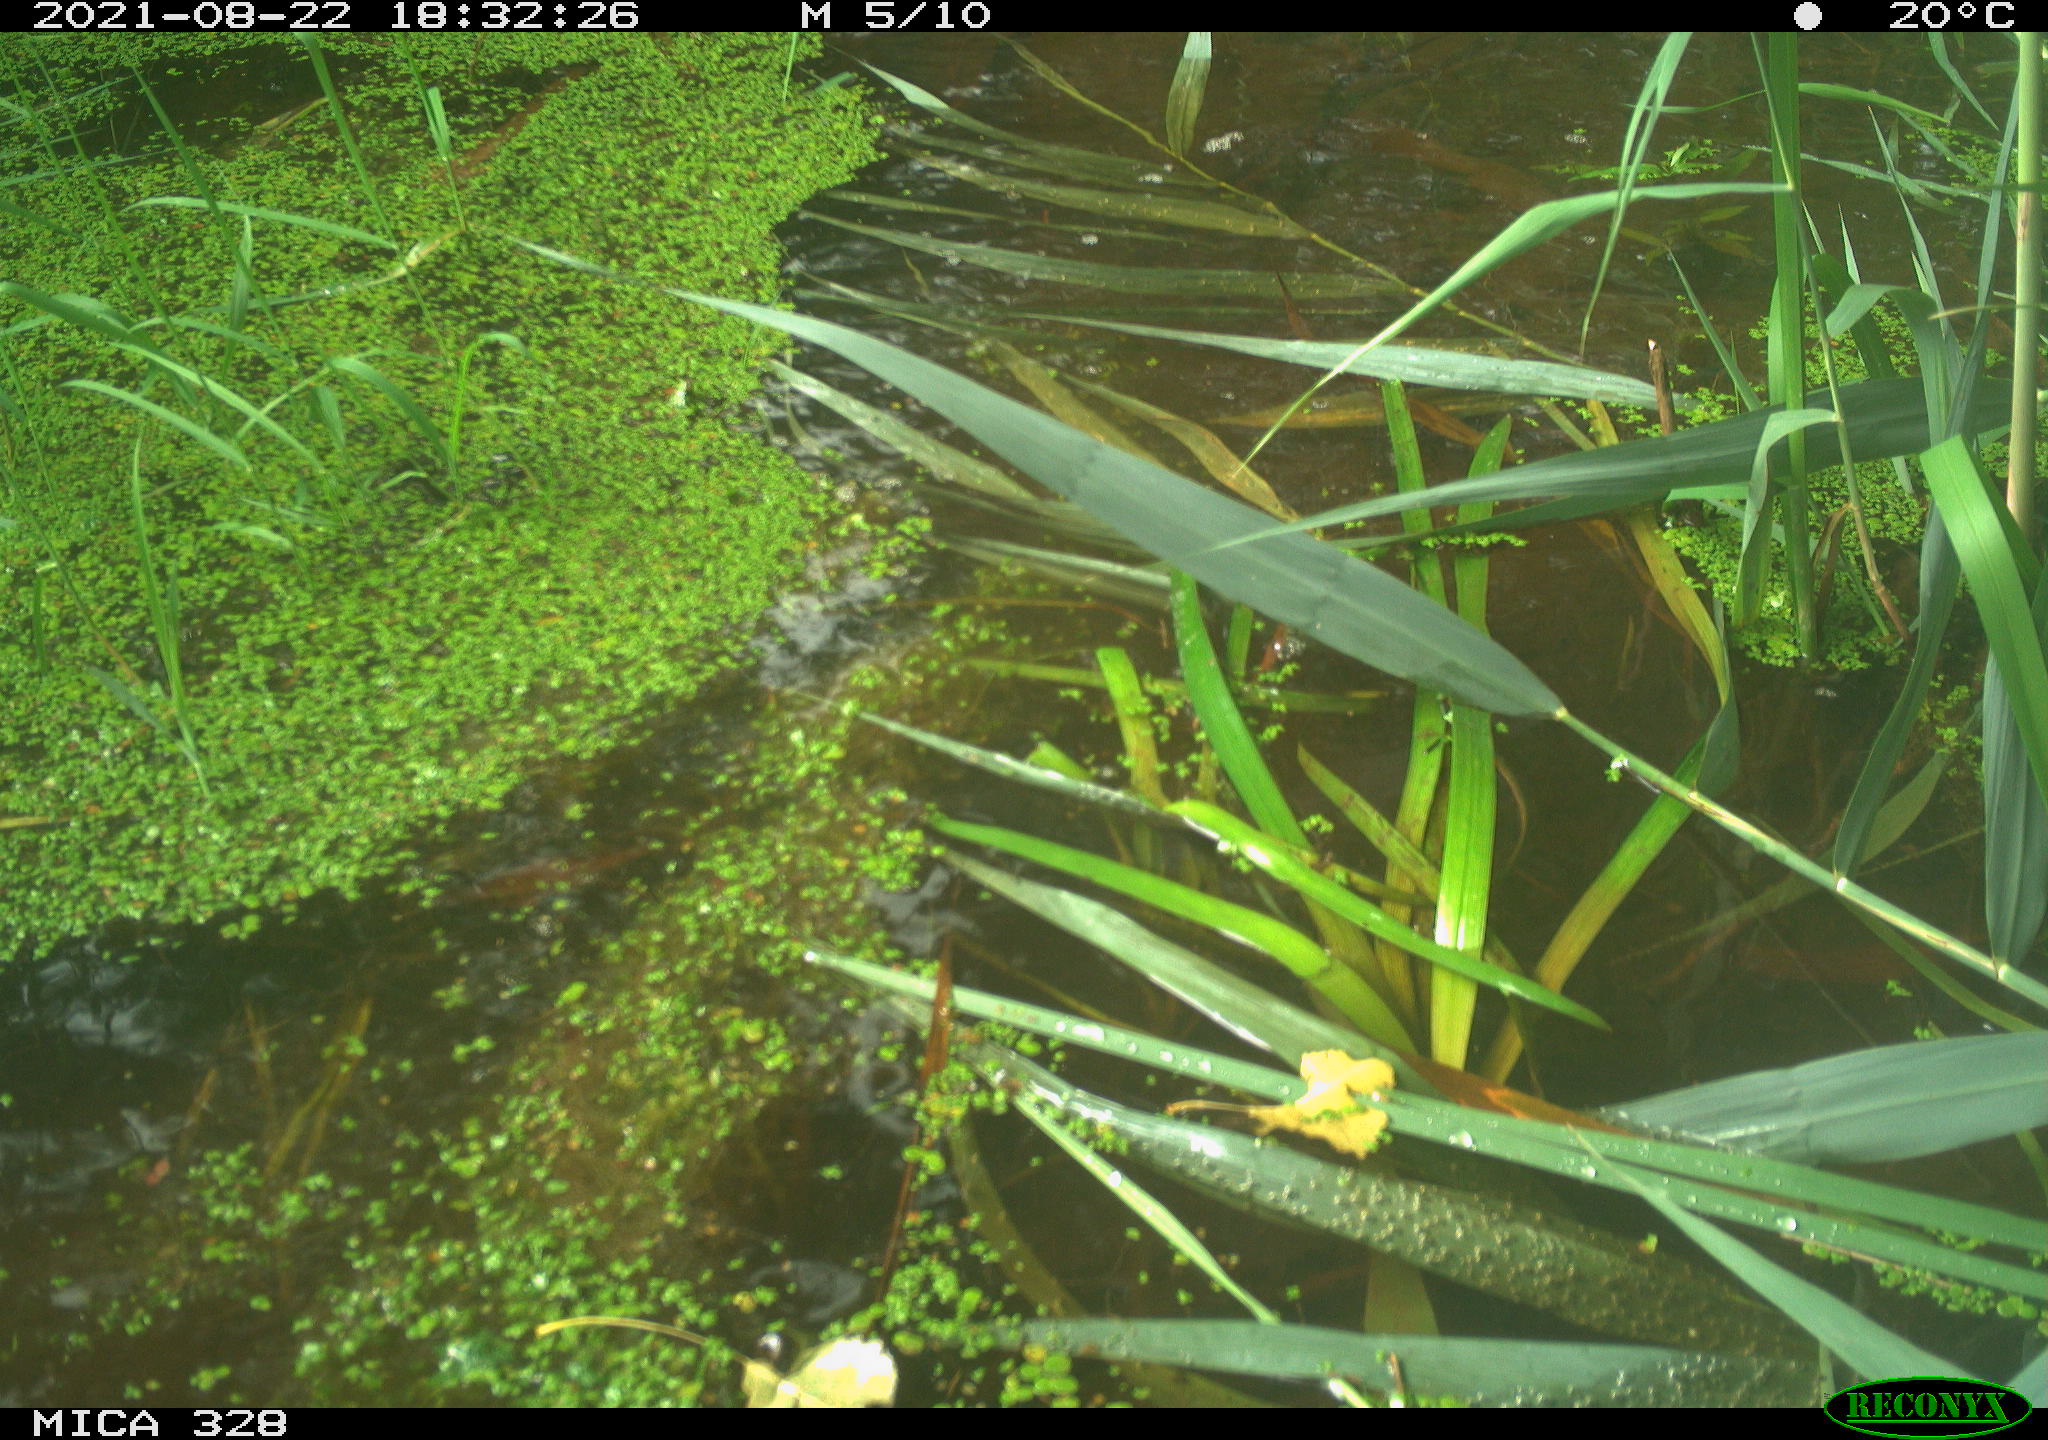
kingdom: Animalia
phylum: Chordata
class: Mammalia
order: Rodentia
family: Cricetidae
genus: Ondatra
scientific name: Ondatra zibethicus
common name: Muskrat
